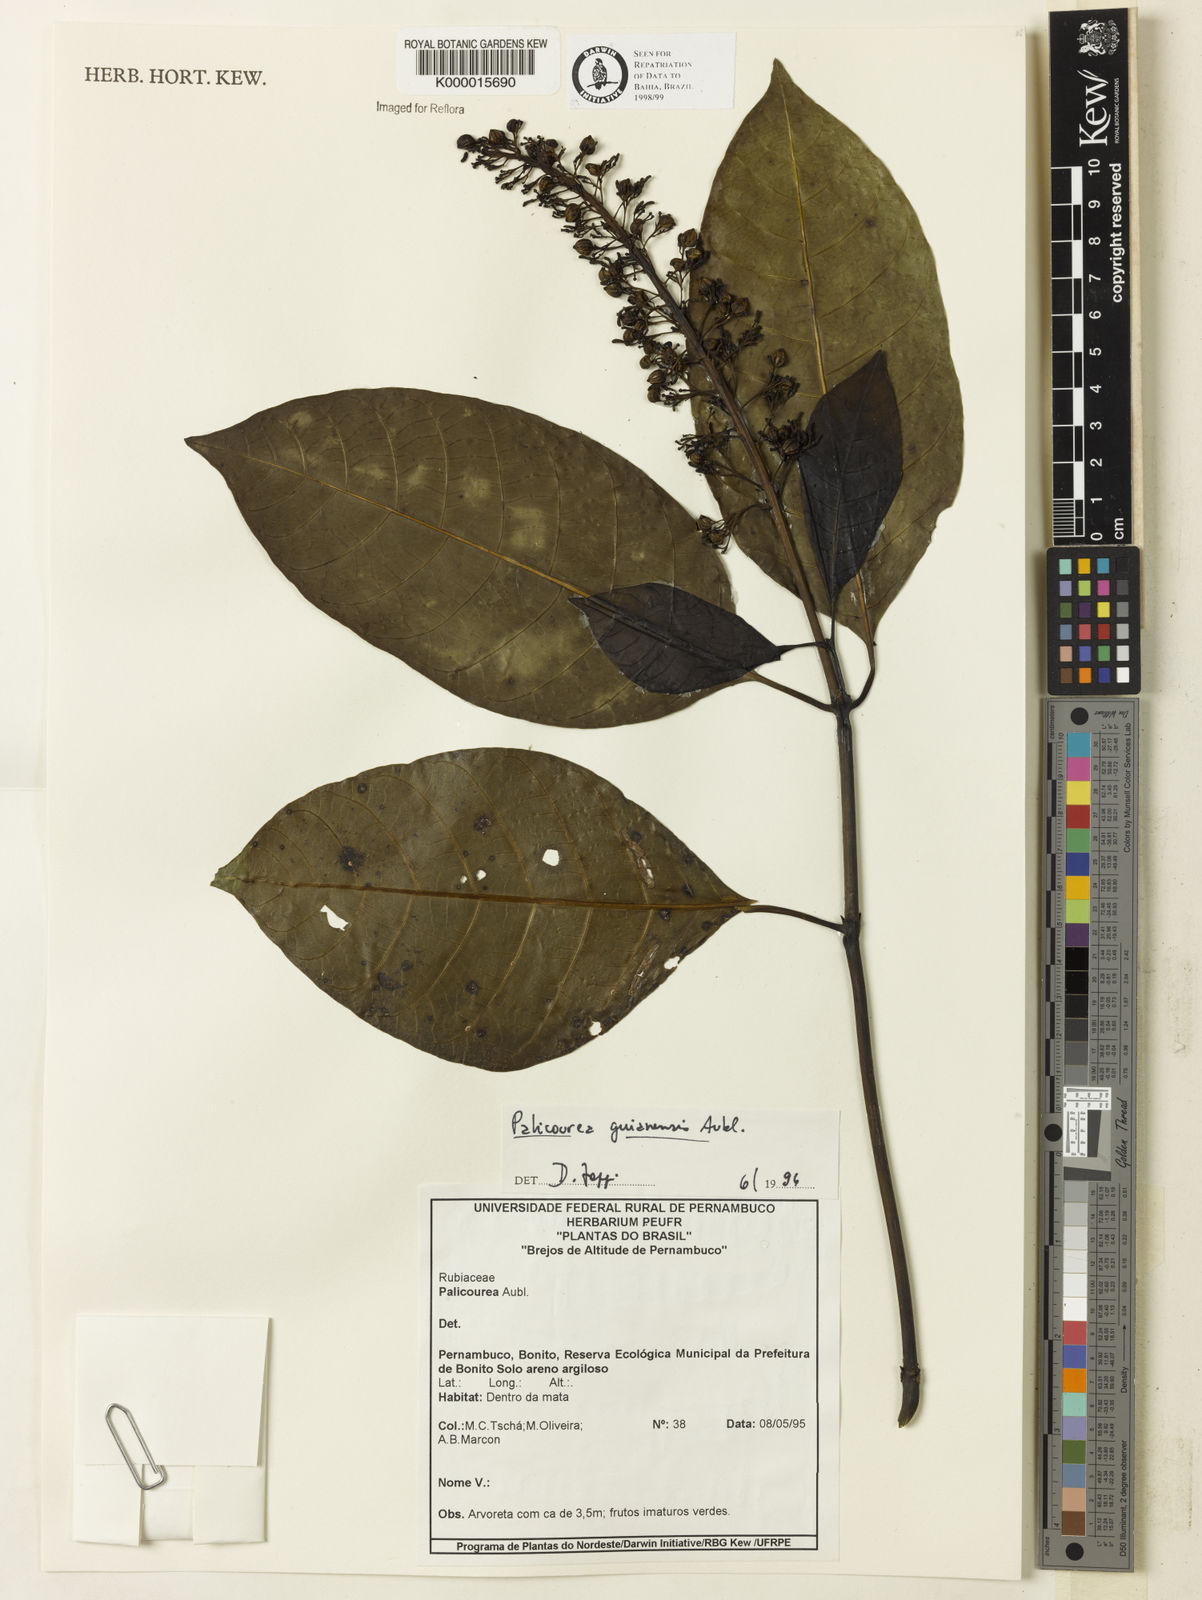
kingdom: Plantae
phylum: Tracheophyta
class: Magnoliopsida
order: Gentianales
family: Rubiaceae
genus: Palicourea
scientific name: Palicourea guianensis
